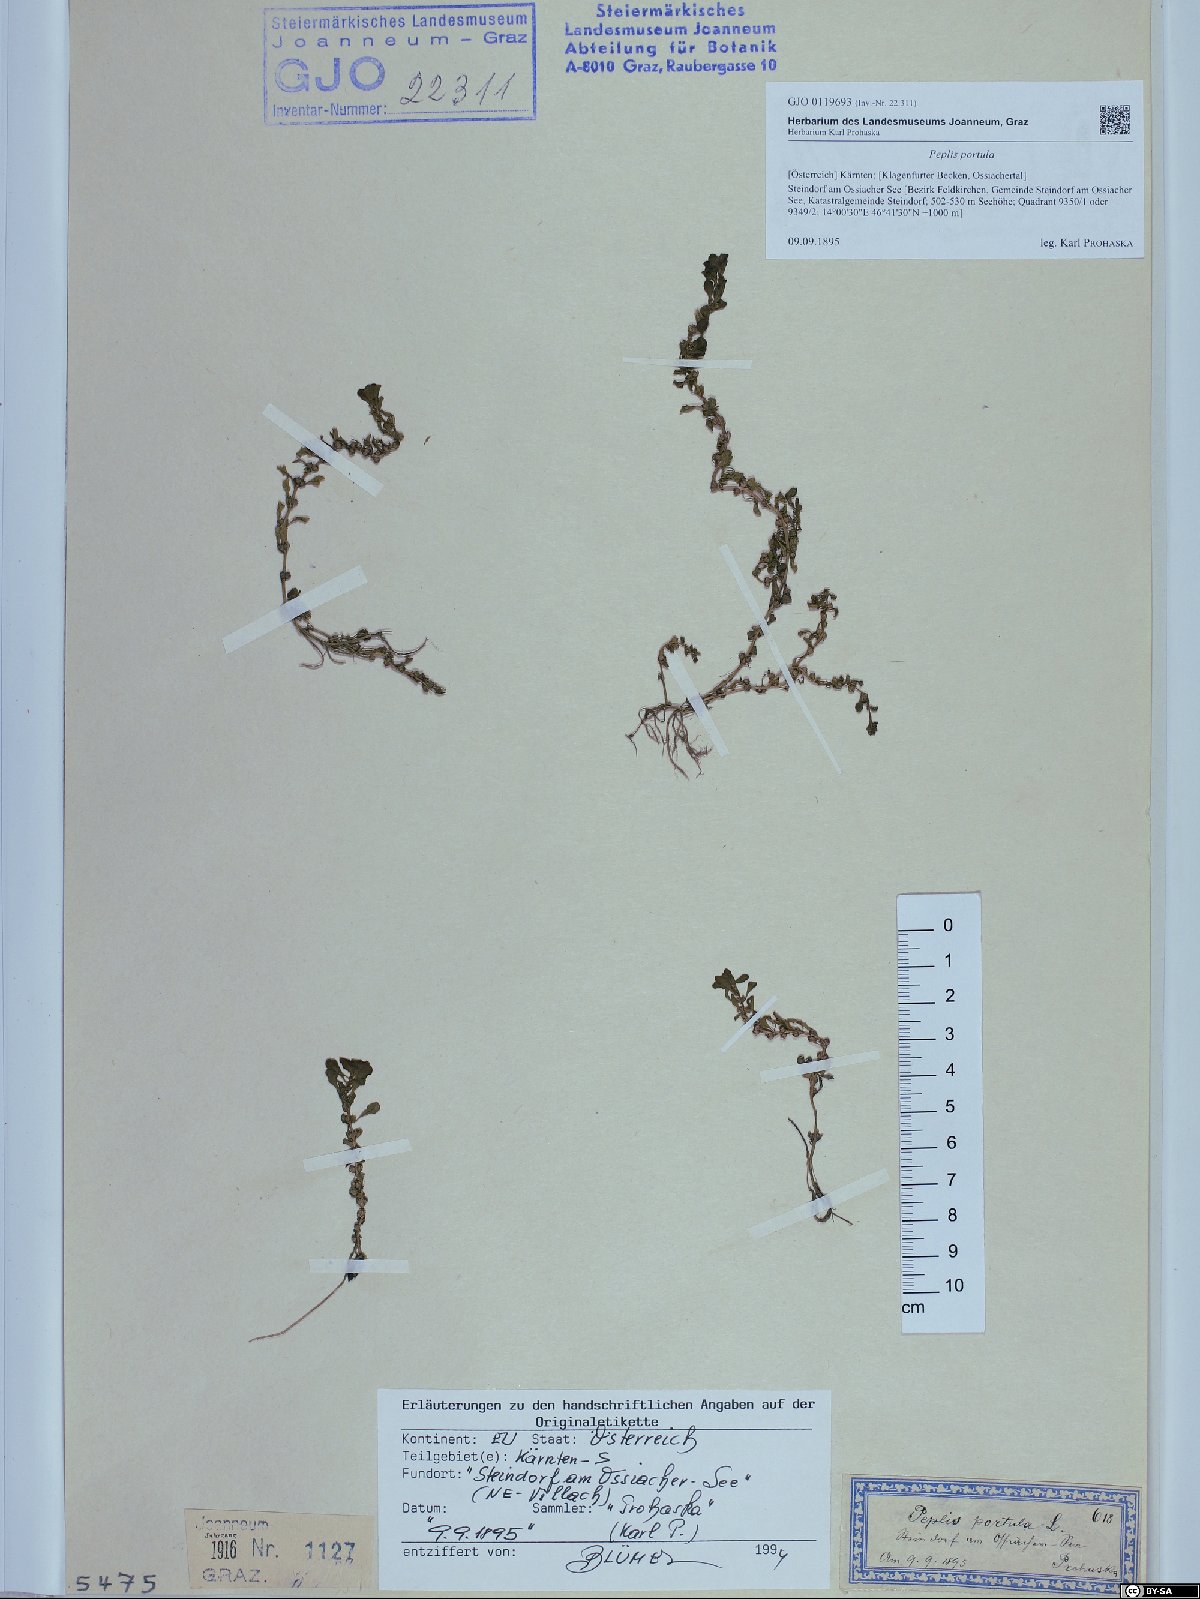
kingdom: Plantae
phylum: Tracheophyta
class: Magnoliopsida
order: Myrtales
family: Lythraceae
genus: Lythrum
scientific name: Lythrum portula
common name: Water purslane
